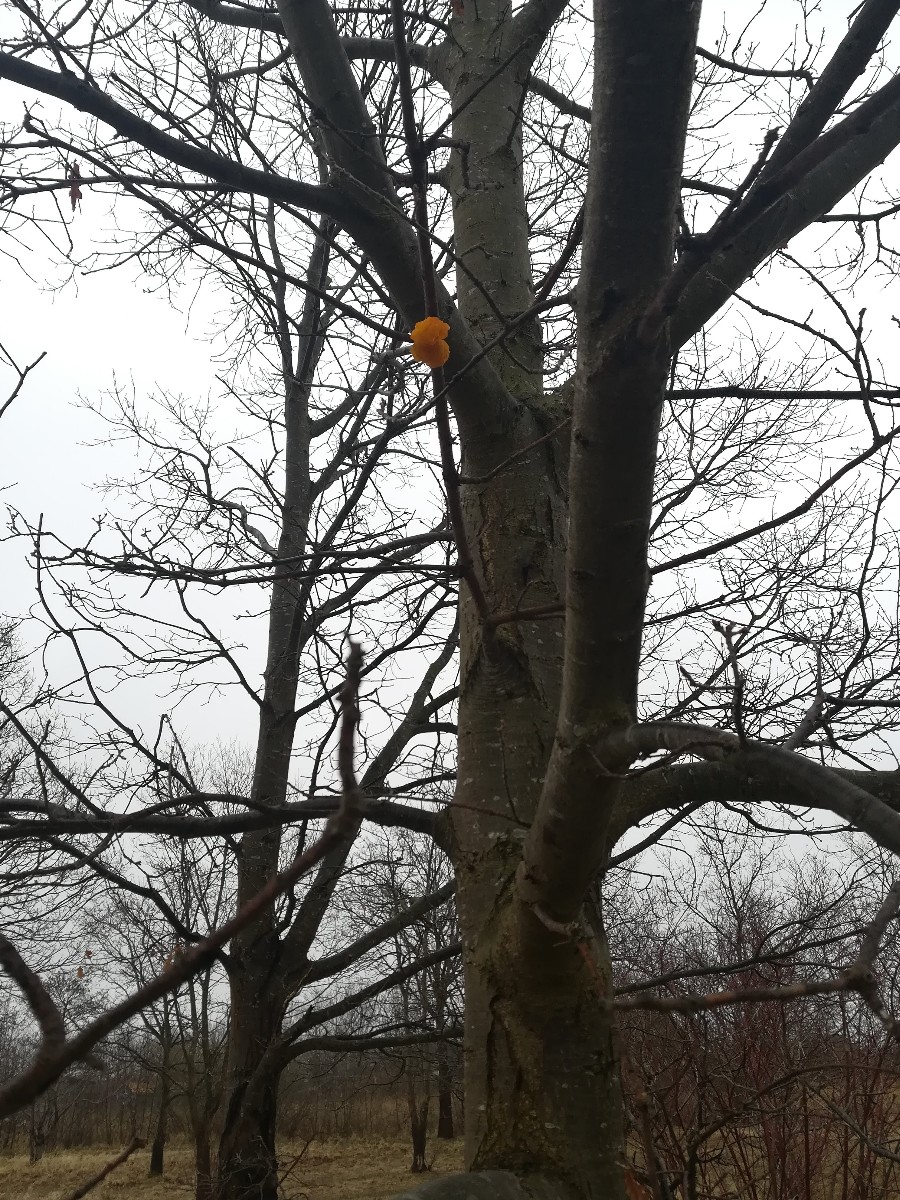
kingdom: Fungi
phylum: Basidiomycota
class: Tremellomycetes
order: Tremellales
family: Tremellaceae
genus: Tremella
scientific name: Tremella mesenterica
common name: gul bævresvamp
